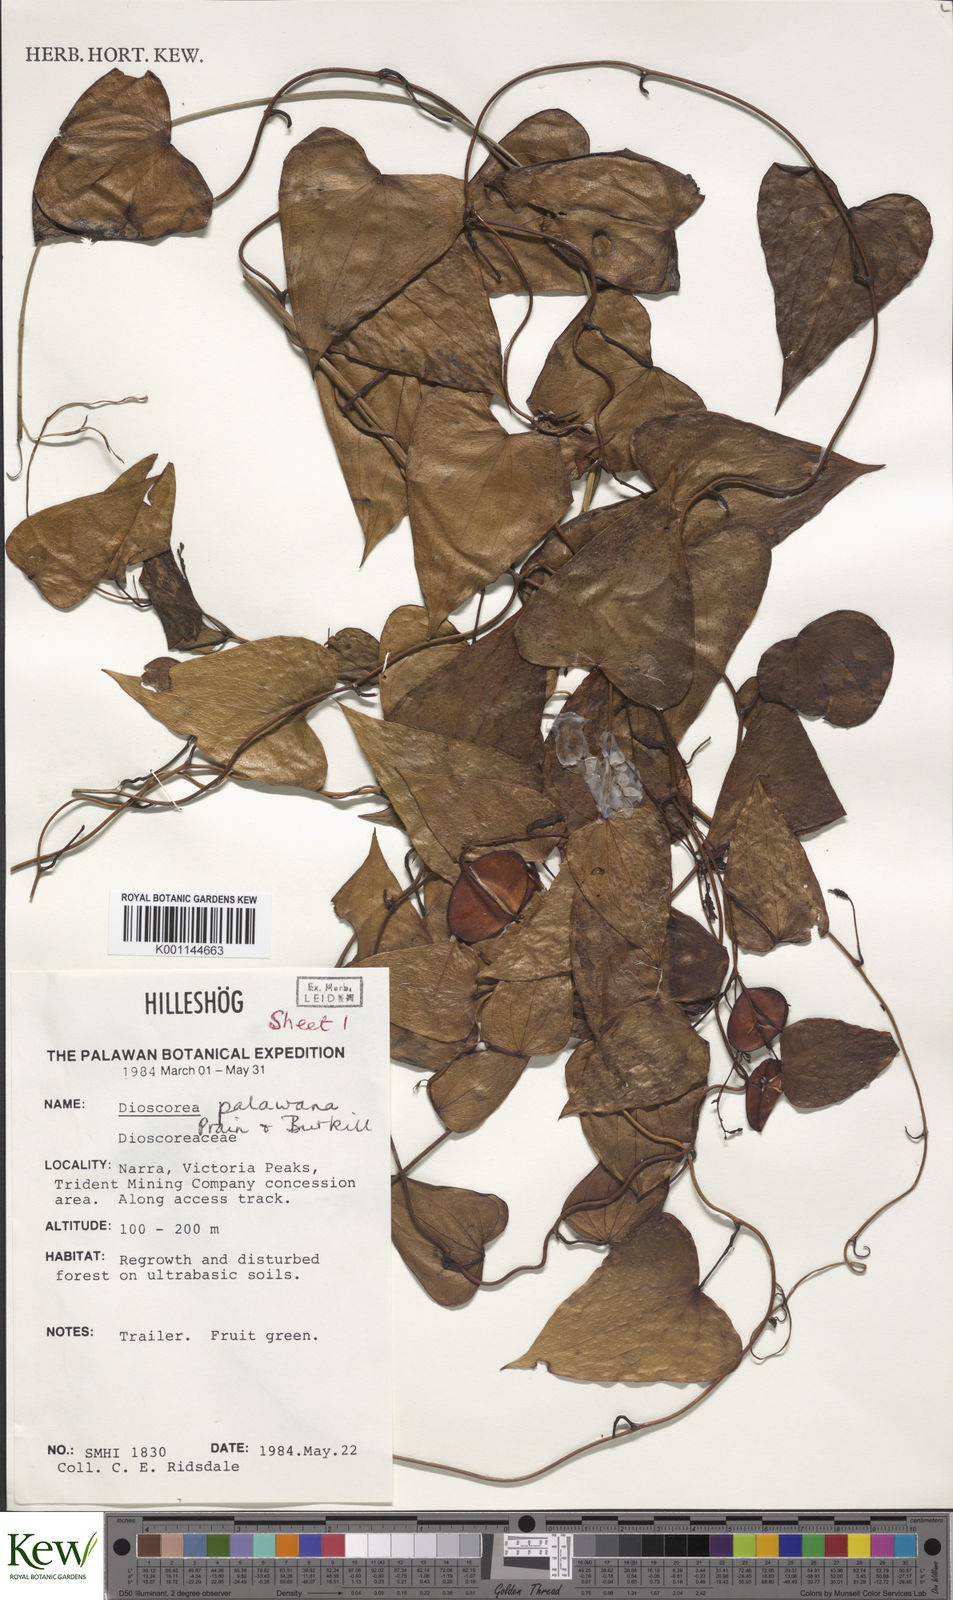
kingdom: Plantae
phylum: Tracheophyta
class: Liliopsida
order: Dioscoreales
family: Dioscoreaceae
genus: Dioscorea
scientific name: Dioscorea palawana
